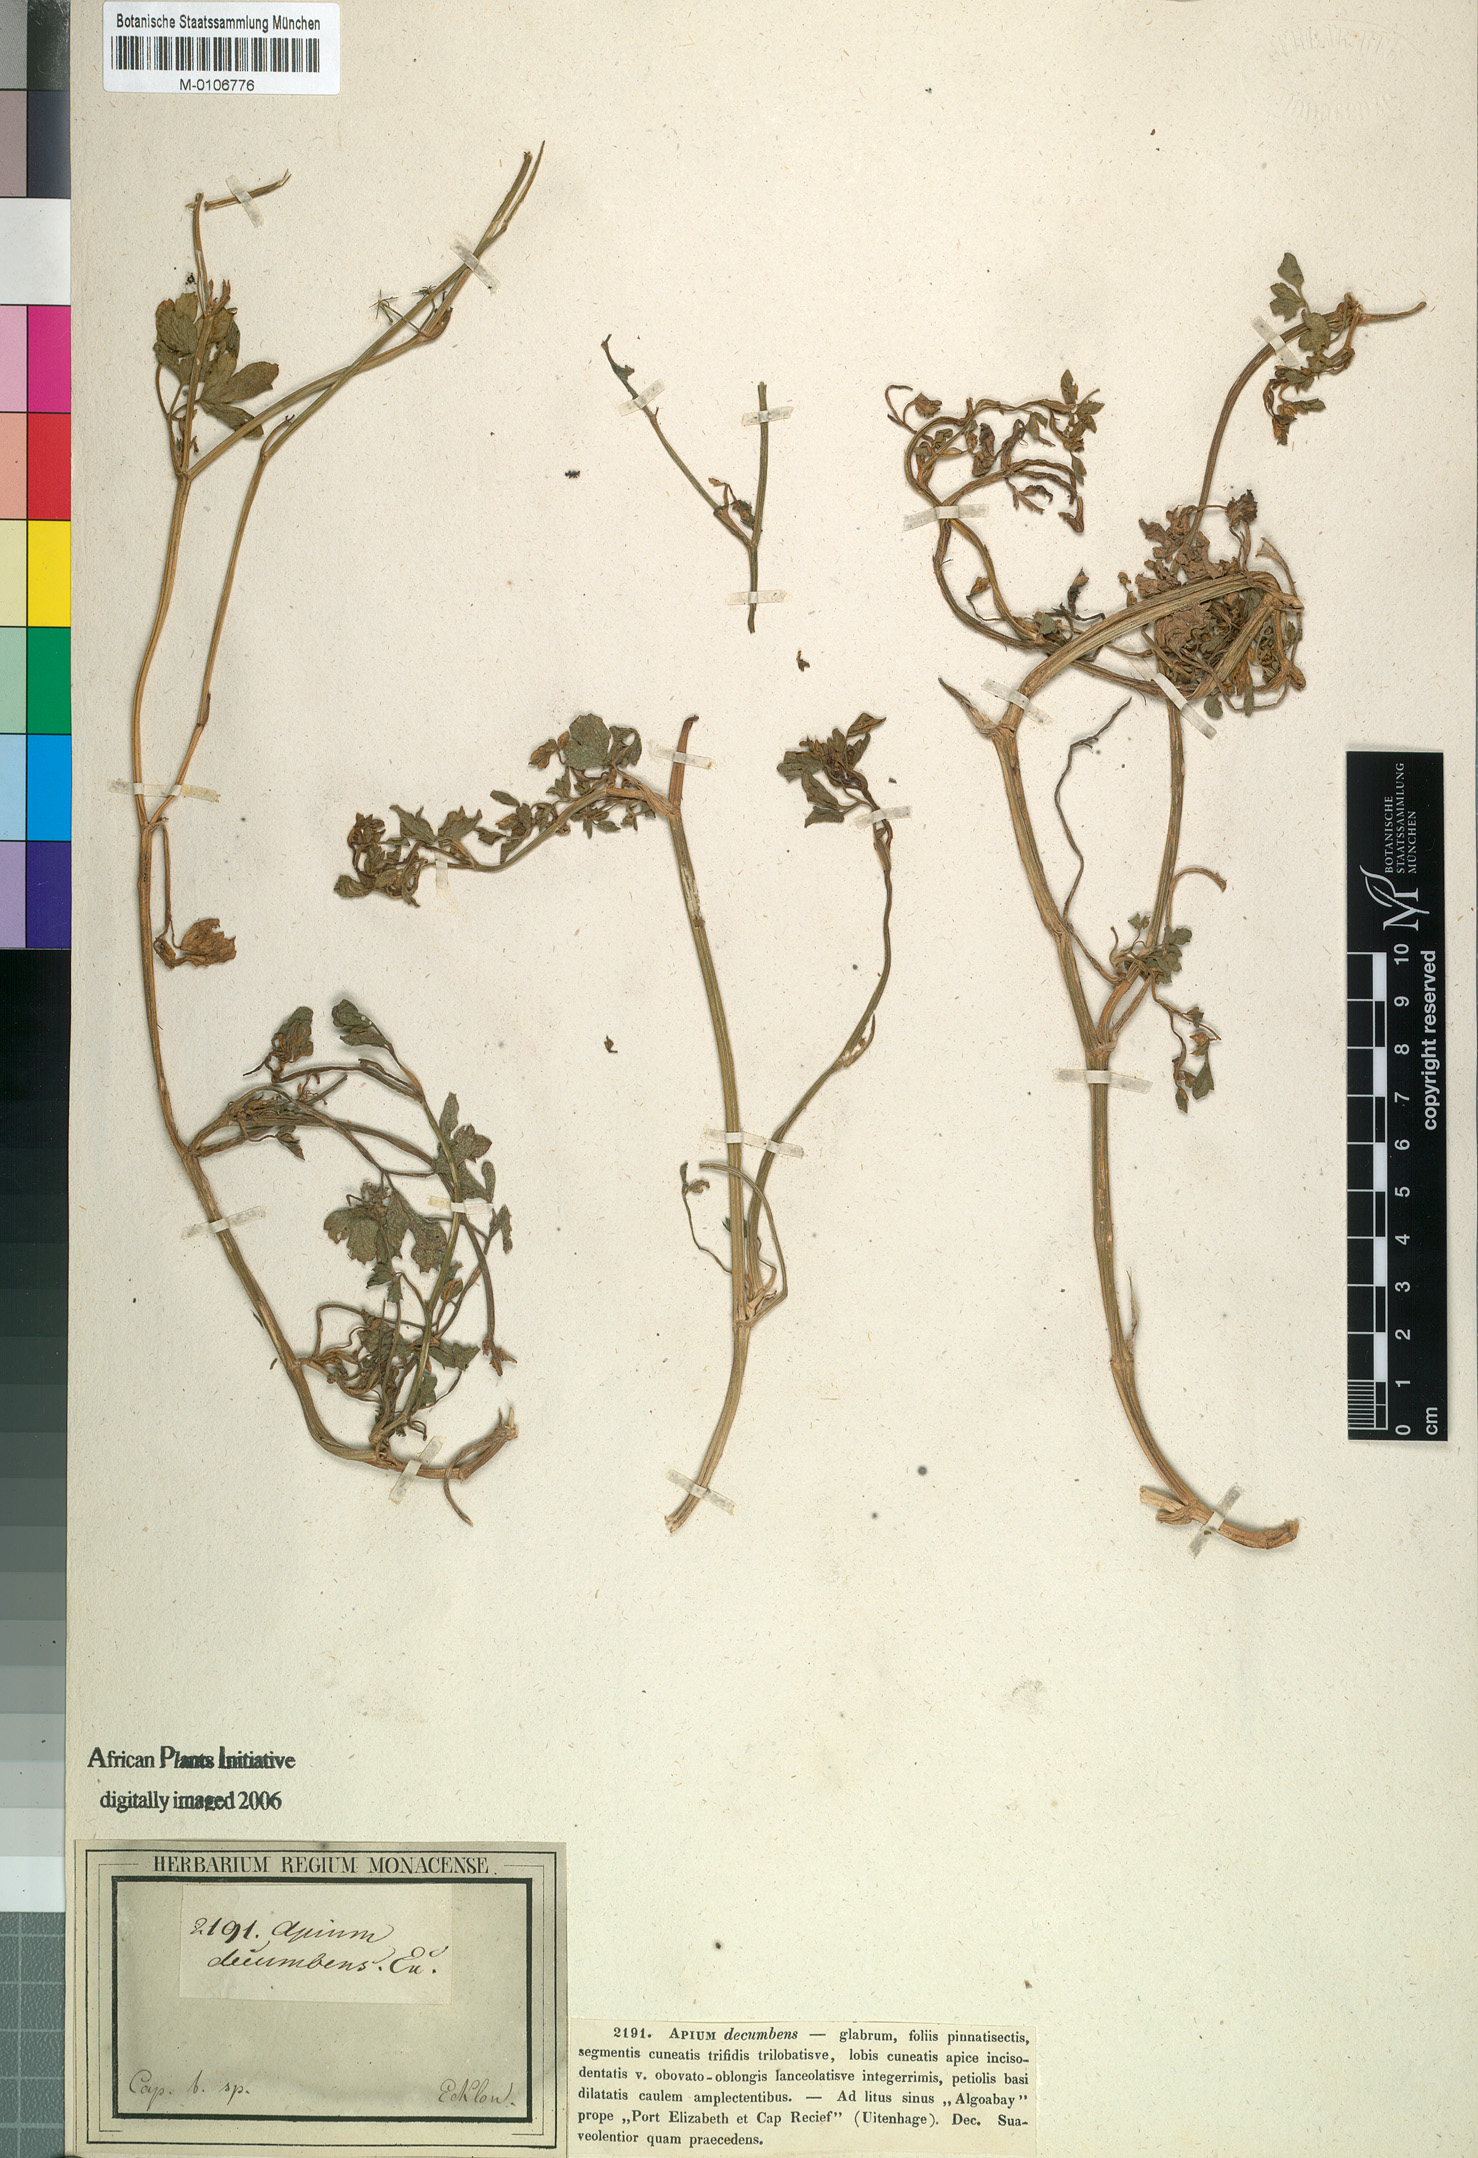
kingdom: Plantae
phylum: Tracheophyta
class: Magnoliopsida
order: Apiales
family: Apiaceae
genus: Apium
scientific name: Apium graveolens
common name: Wild celery
